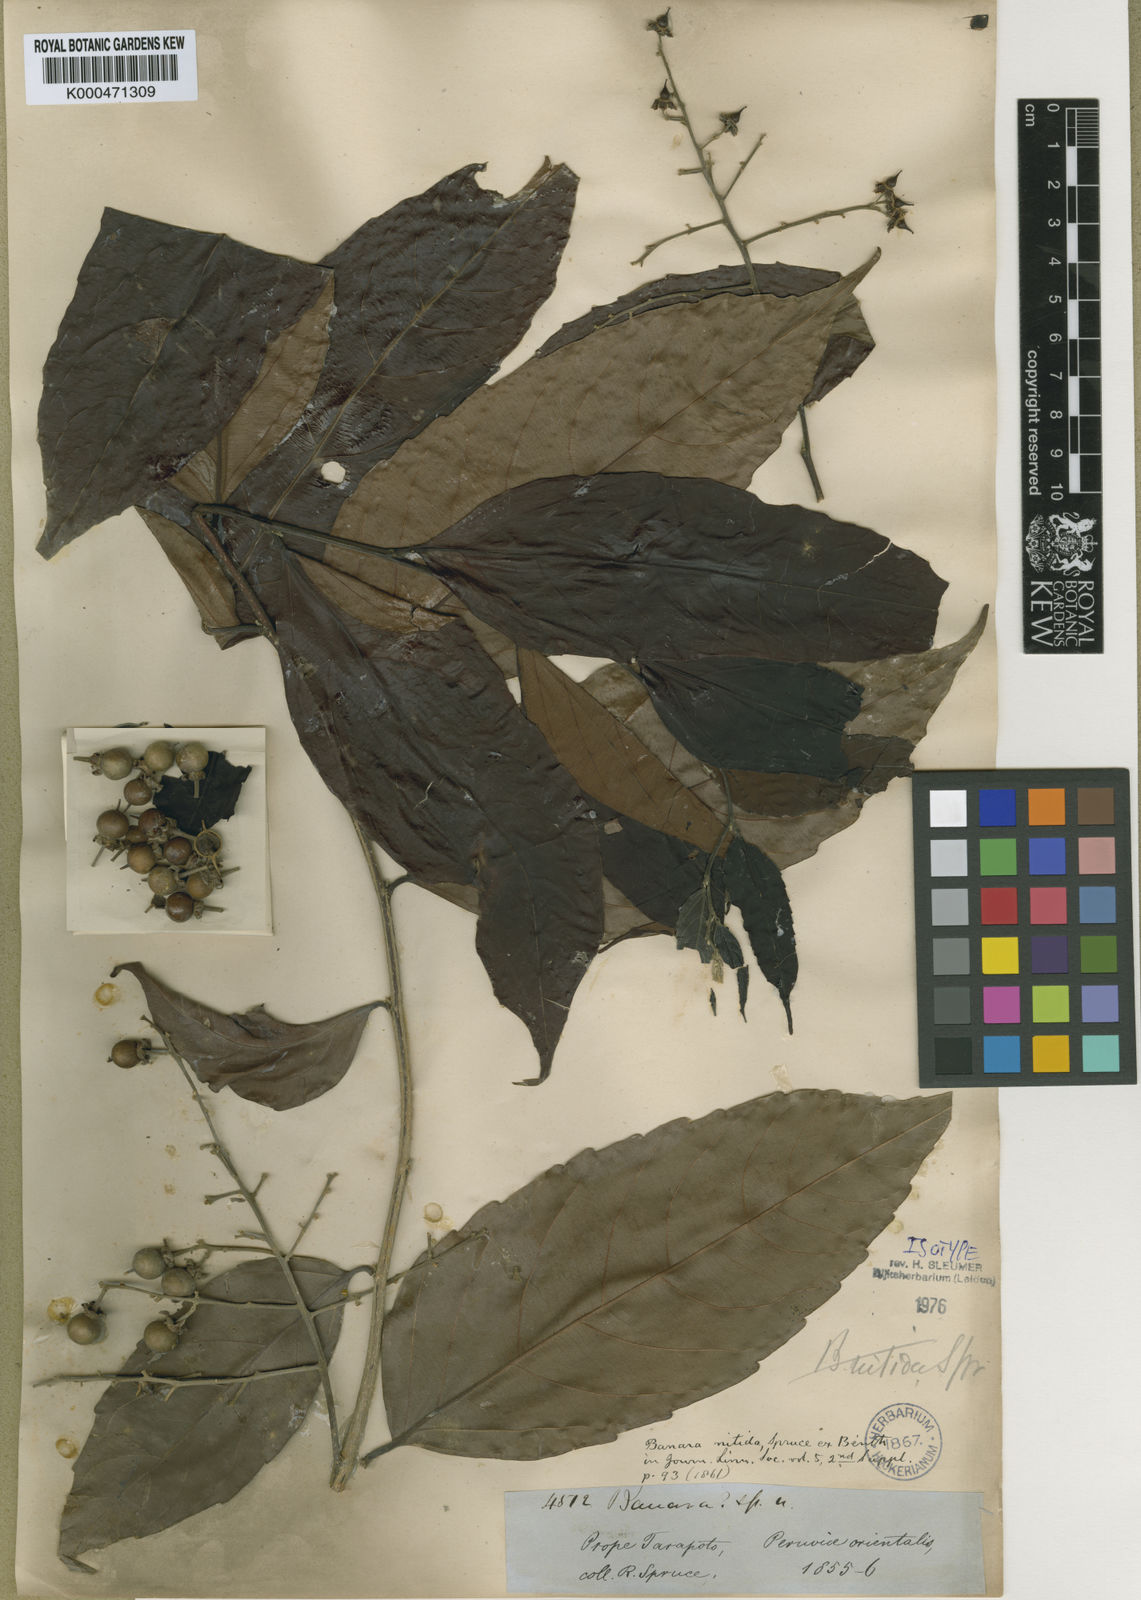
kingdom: Plantae
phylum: Tracheophyta
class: Magnoliopsida
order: Malpighiales
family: Salicaceae
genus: Banara
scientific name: Banara nitida
